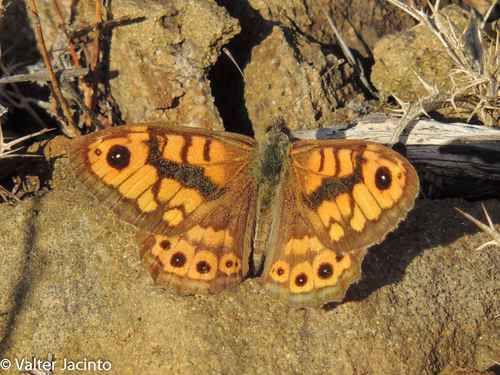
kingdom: Animalia
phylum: Arthropoda
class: Insecta
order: Lepidoptera
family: Nymphalidae
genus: Pararge
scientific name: Pararge Lasiommata megera
